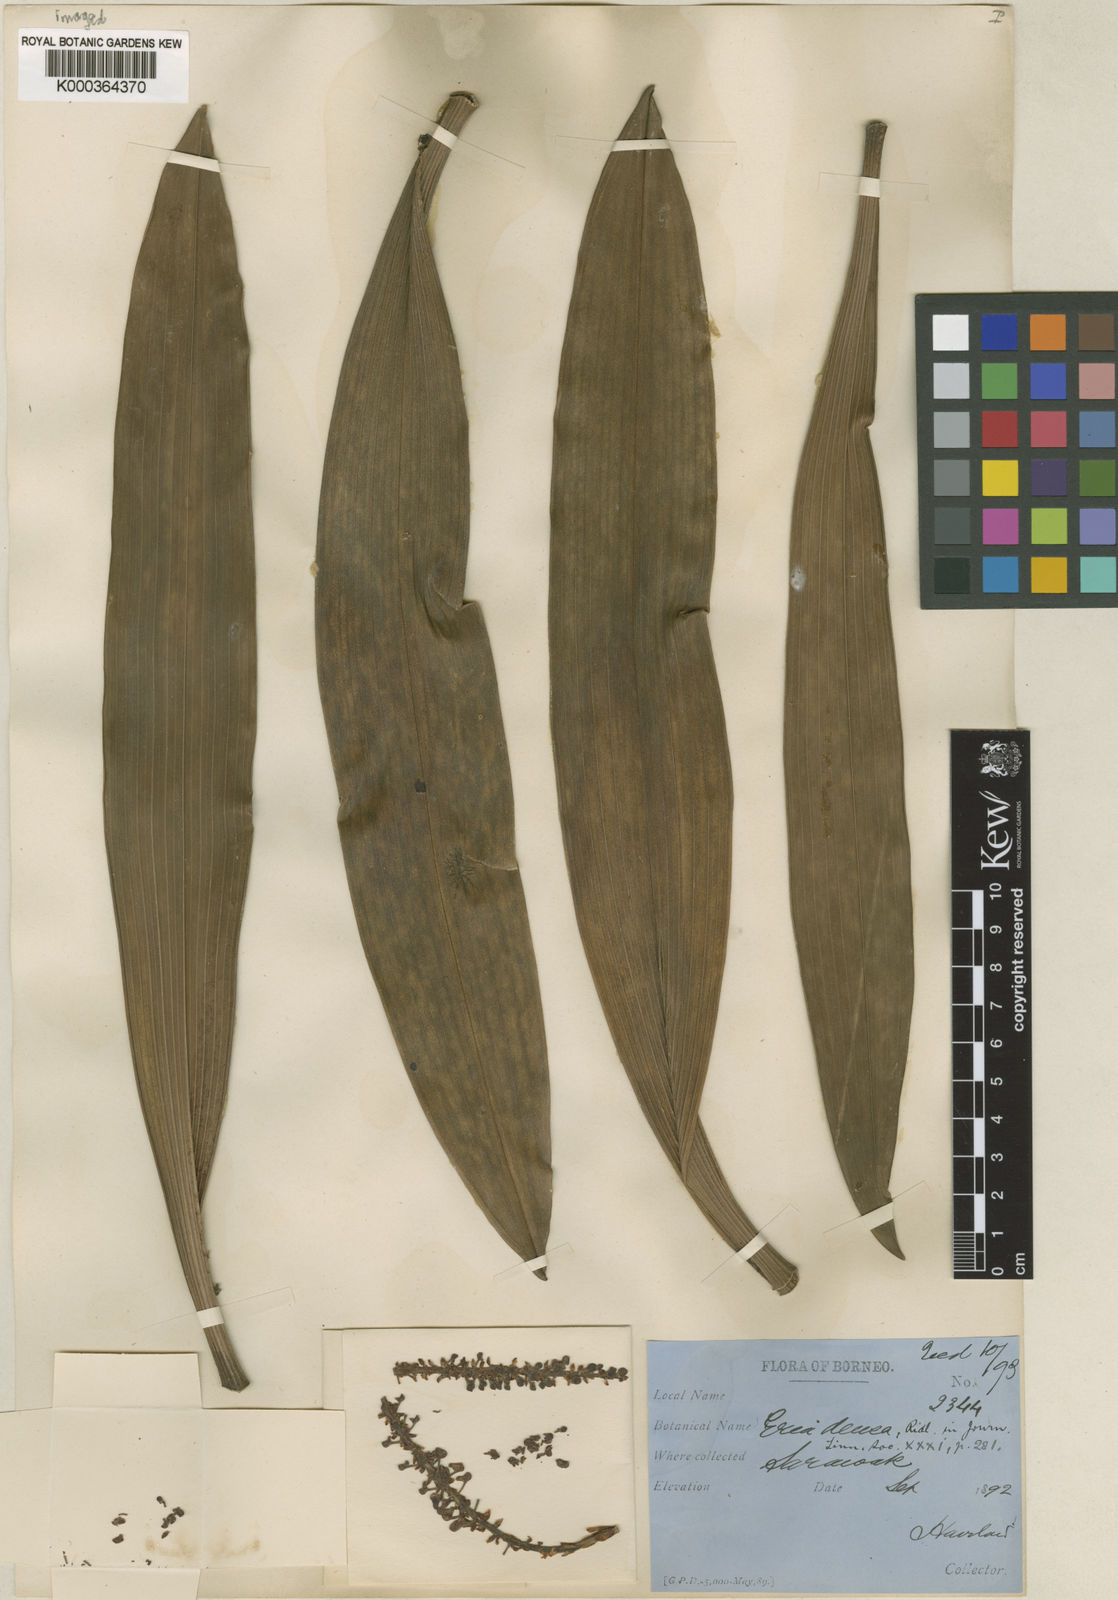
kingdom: Plantae
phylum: Tracheophyta
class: Liliopsida
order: Asparagales
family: Orchidaceae
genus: Pinalia
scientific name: Pinalia densa
